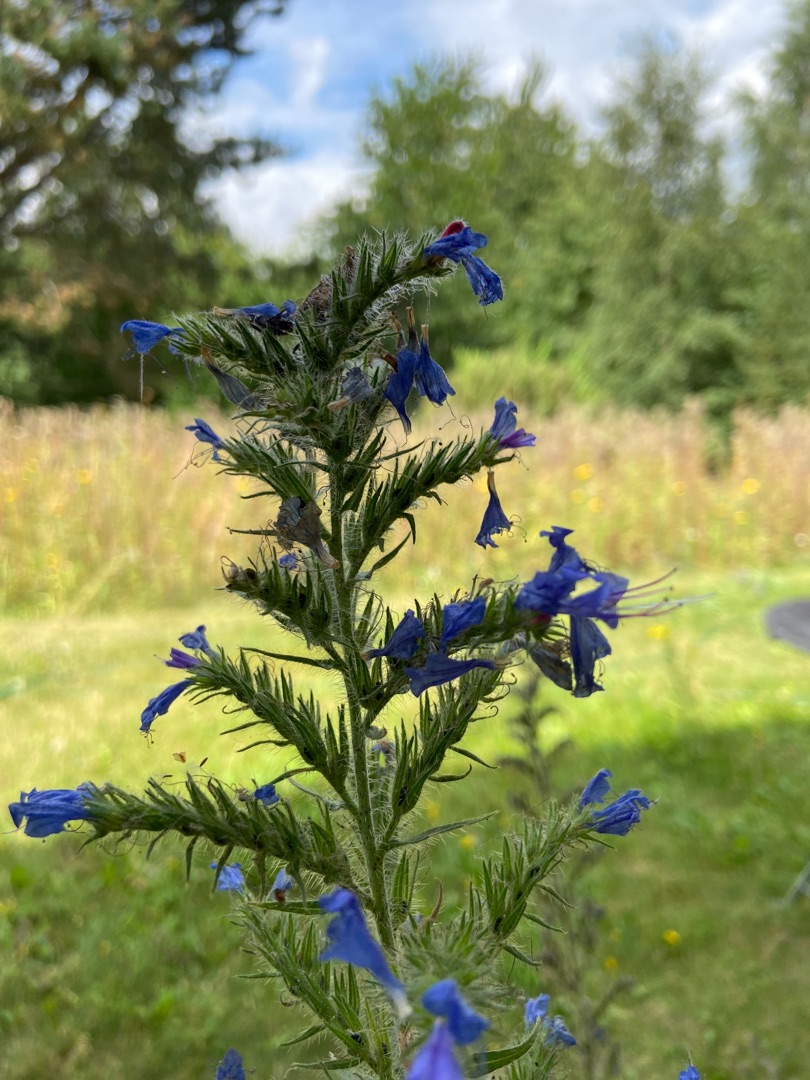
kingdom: Plantae
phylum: Tracheophyta
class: Magnoliopsida
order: Boraginales
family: Boraginaceae
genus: Echium
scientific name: Echium vulgare
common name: Slangehoved
